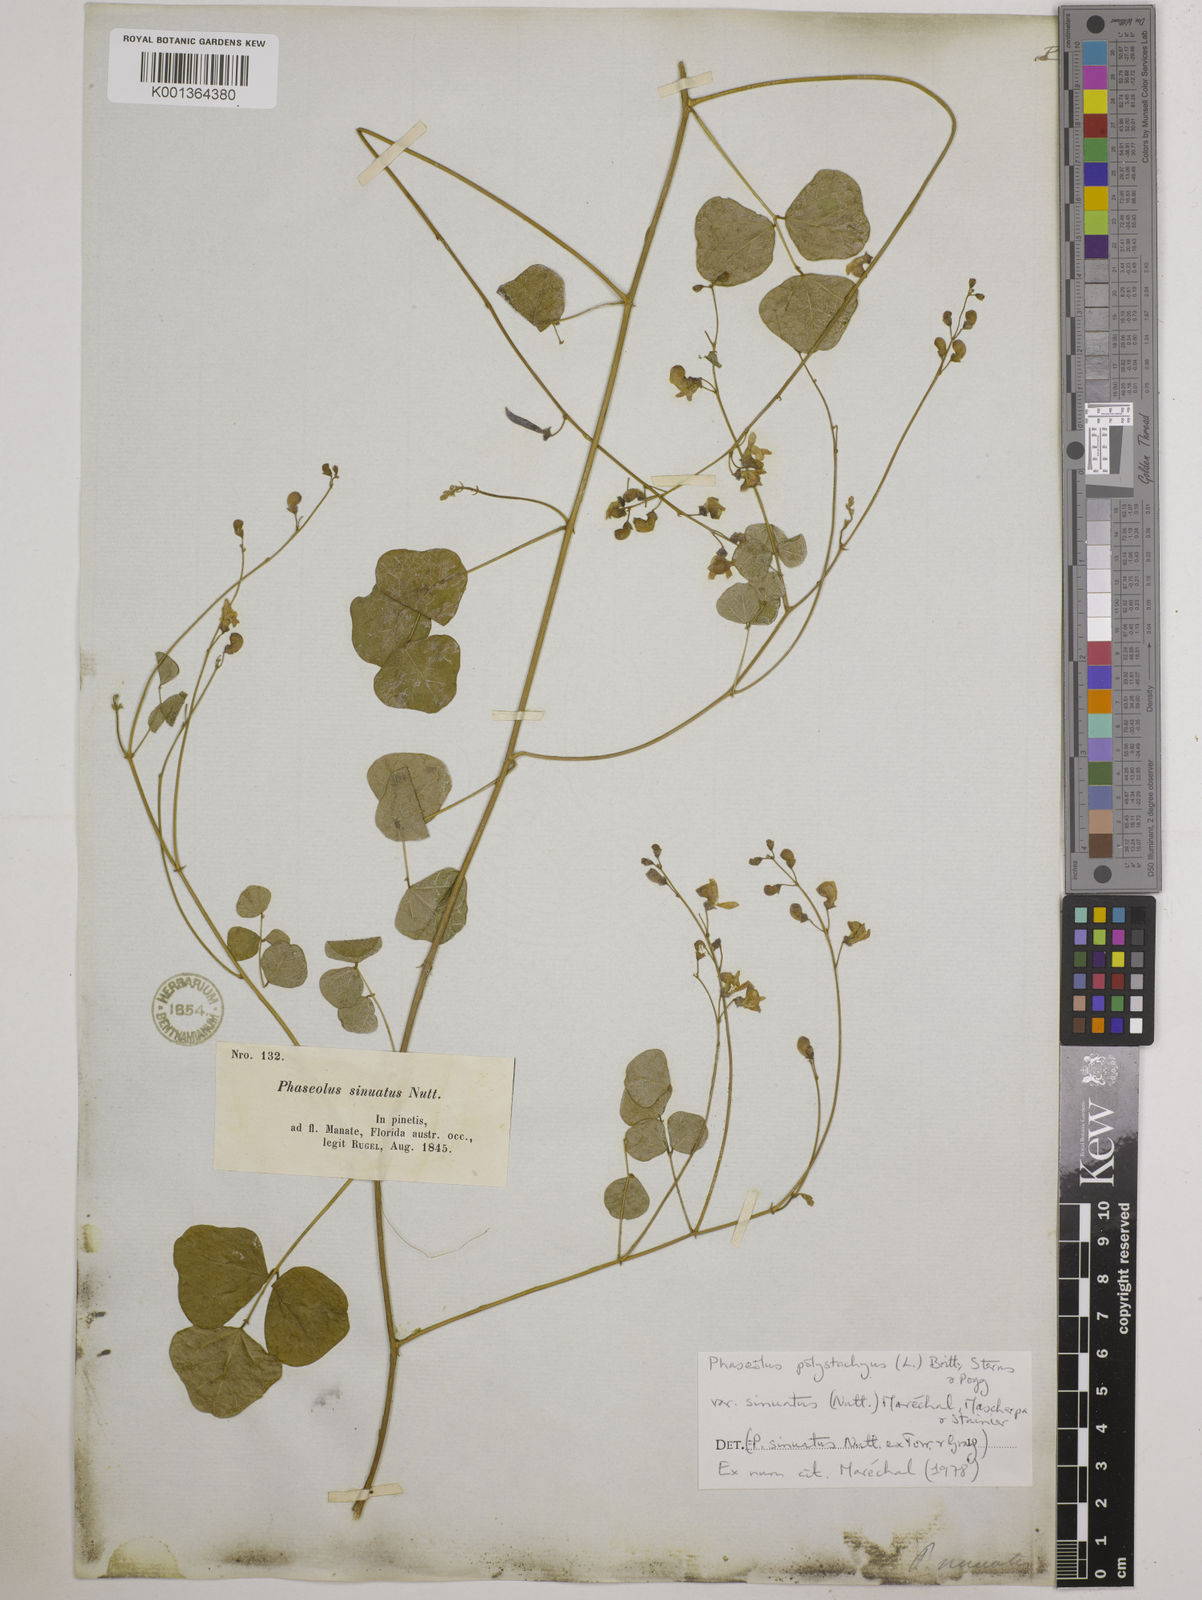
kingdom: Plantae
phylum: Tracheophyta
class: Magnoliopsida
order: Fabales
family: Fabaceae
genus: Phaseolus
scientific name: Phaseolus
